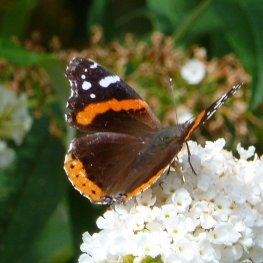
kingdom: Animalia
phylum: Arthropoda
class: Insecta
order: Lepidoptera
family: Nymphalidae
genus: Vanessa
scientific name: Vanessa atalanta
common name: Red Admiral
